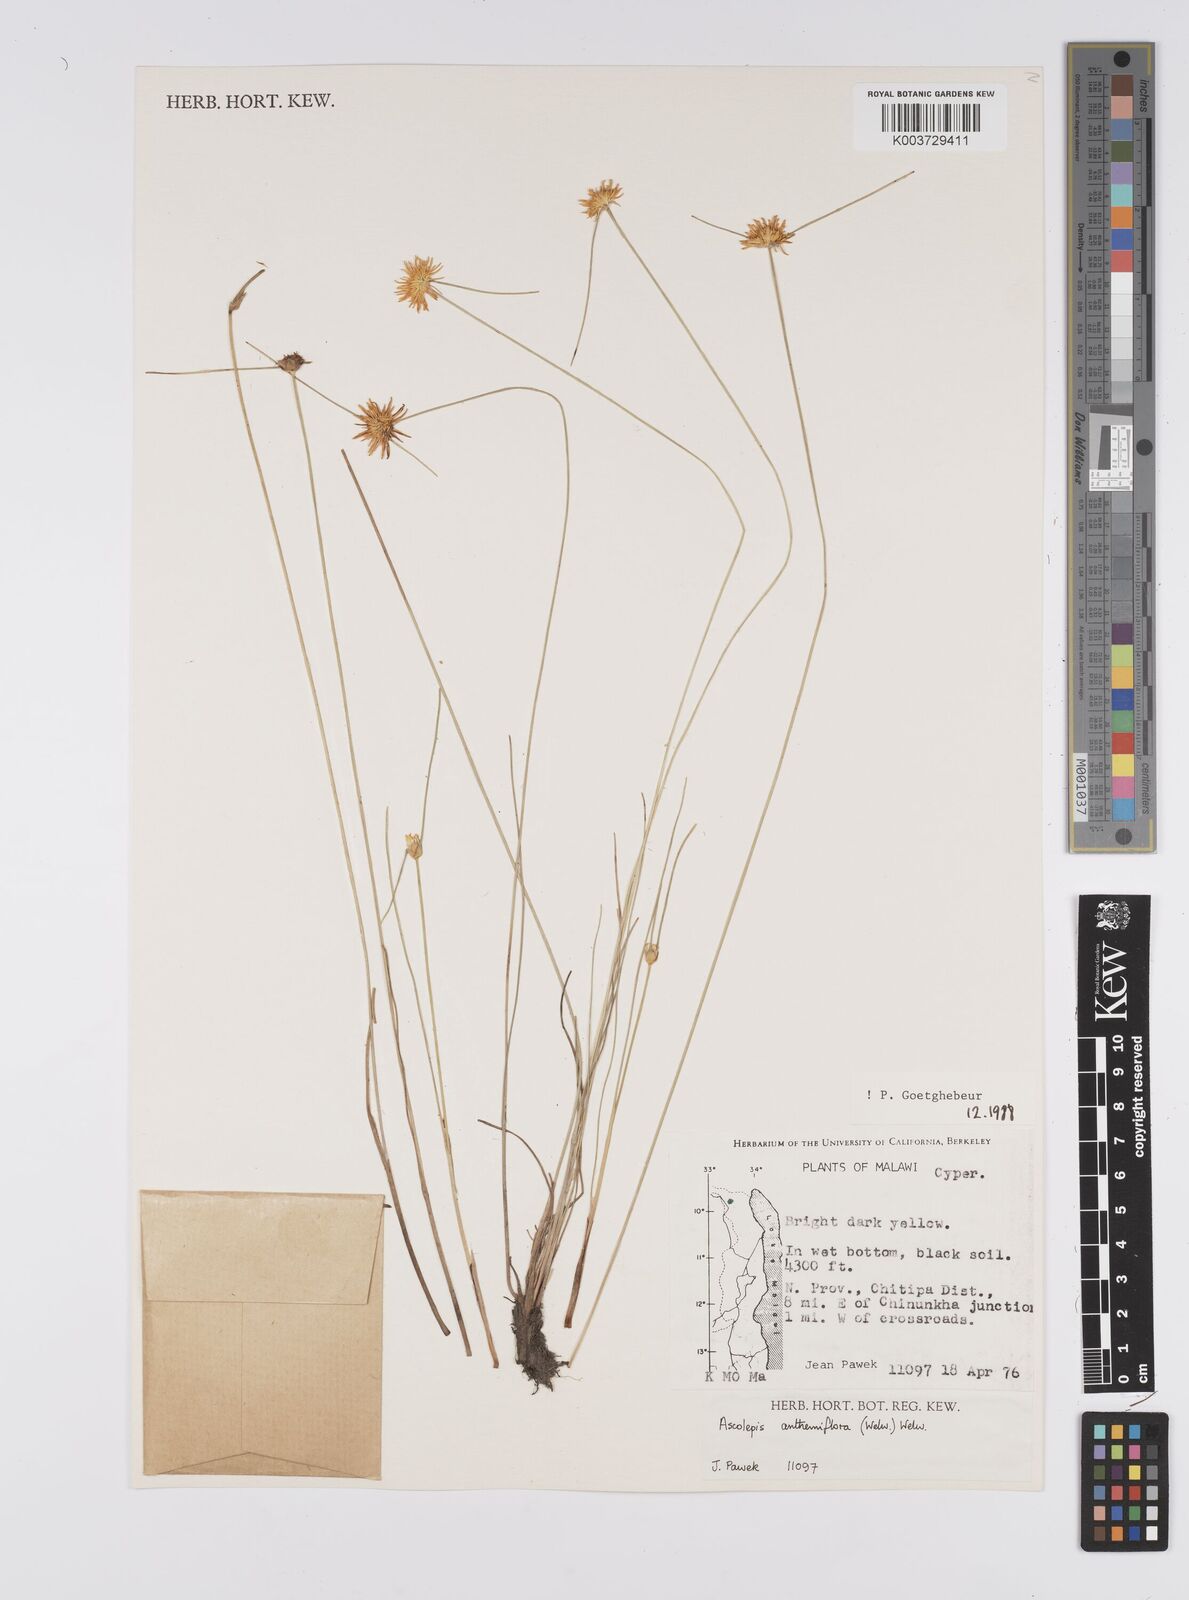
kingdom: Plantae
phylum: Tracheophyta
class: Liliopsida
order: Poales
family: Cyperaceae
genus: Cyperus
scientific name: Cyperus
